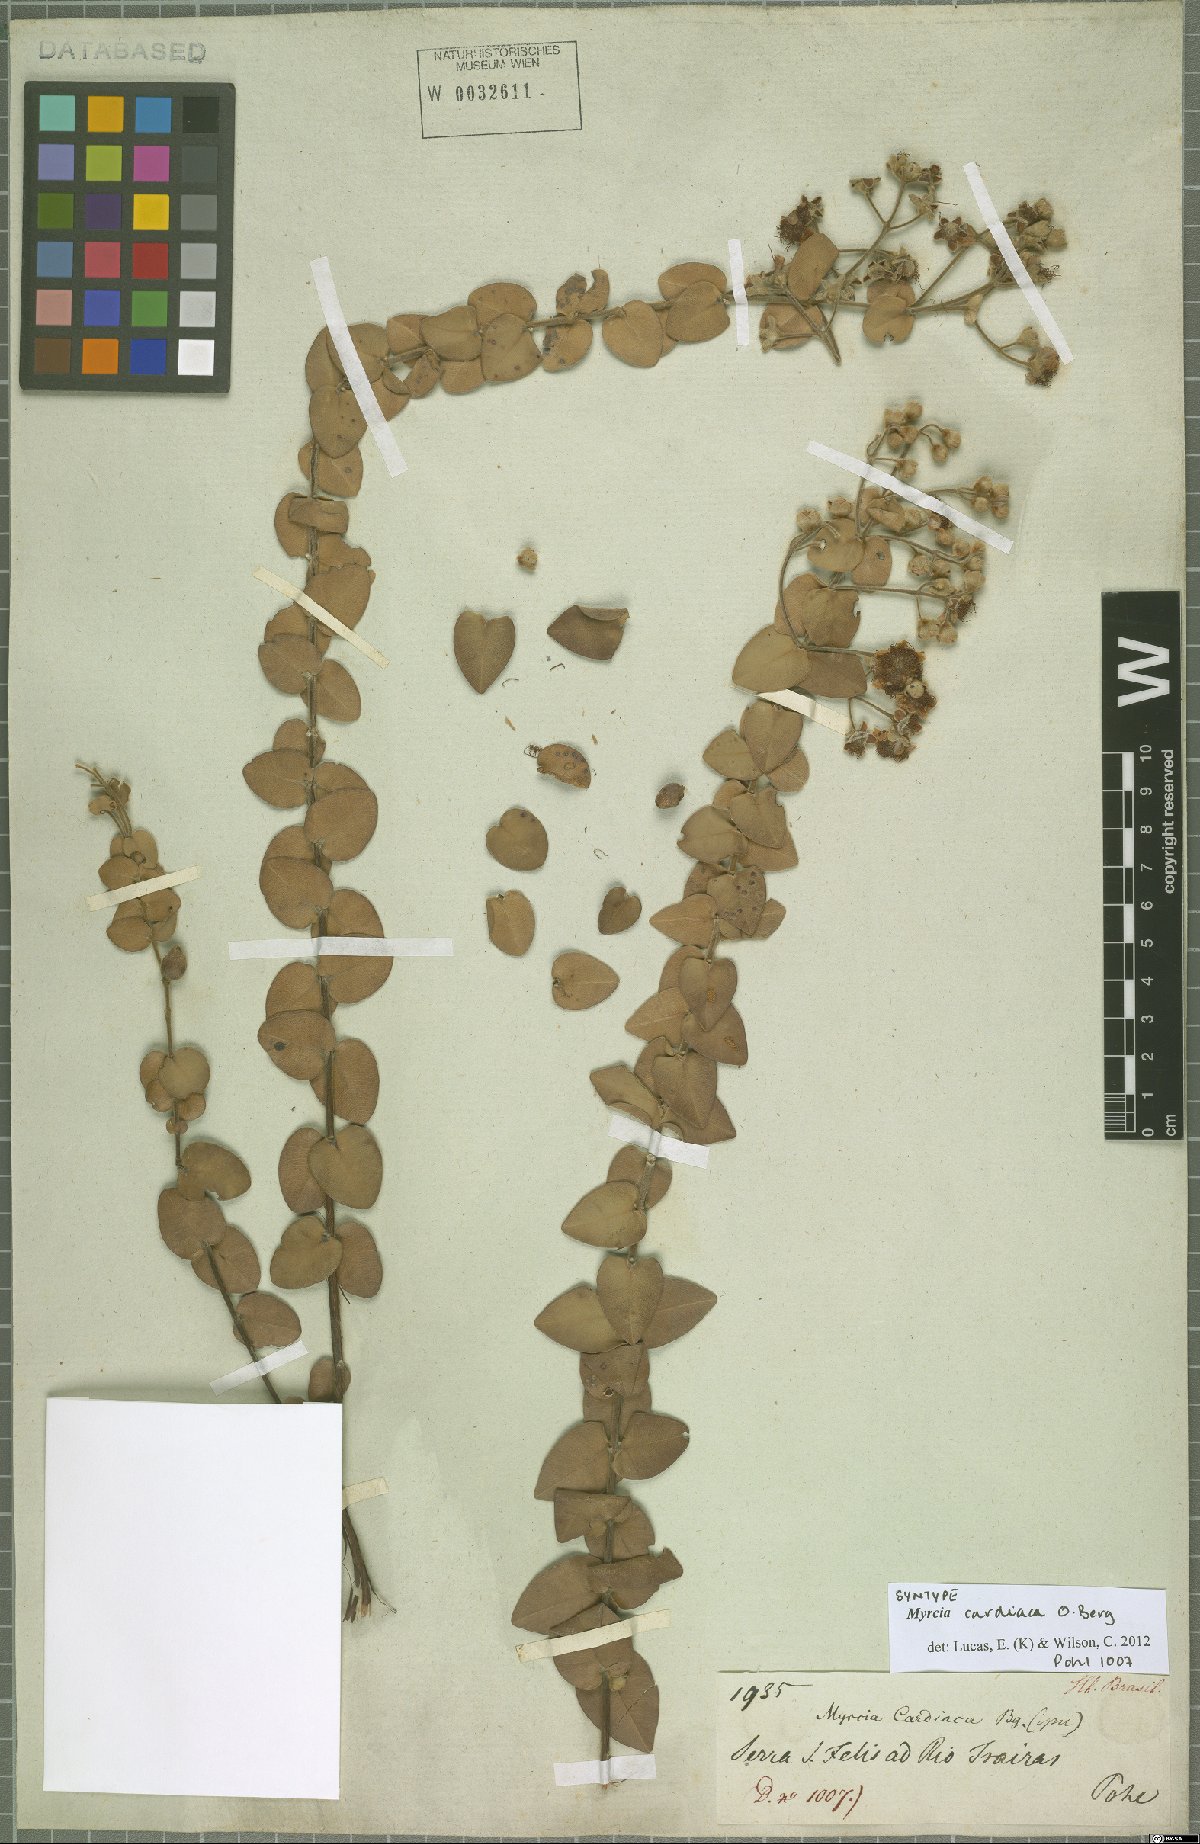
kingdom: Plantae
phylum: Tracheophyta
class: Magnoliopsida
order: Myrtales
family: Myrtaceae
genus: Myrcia
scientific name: Myrcia cardiaca
